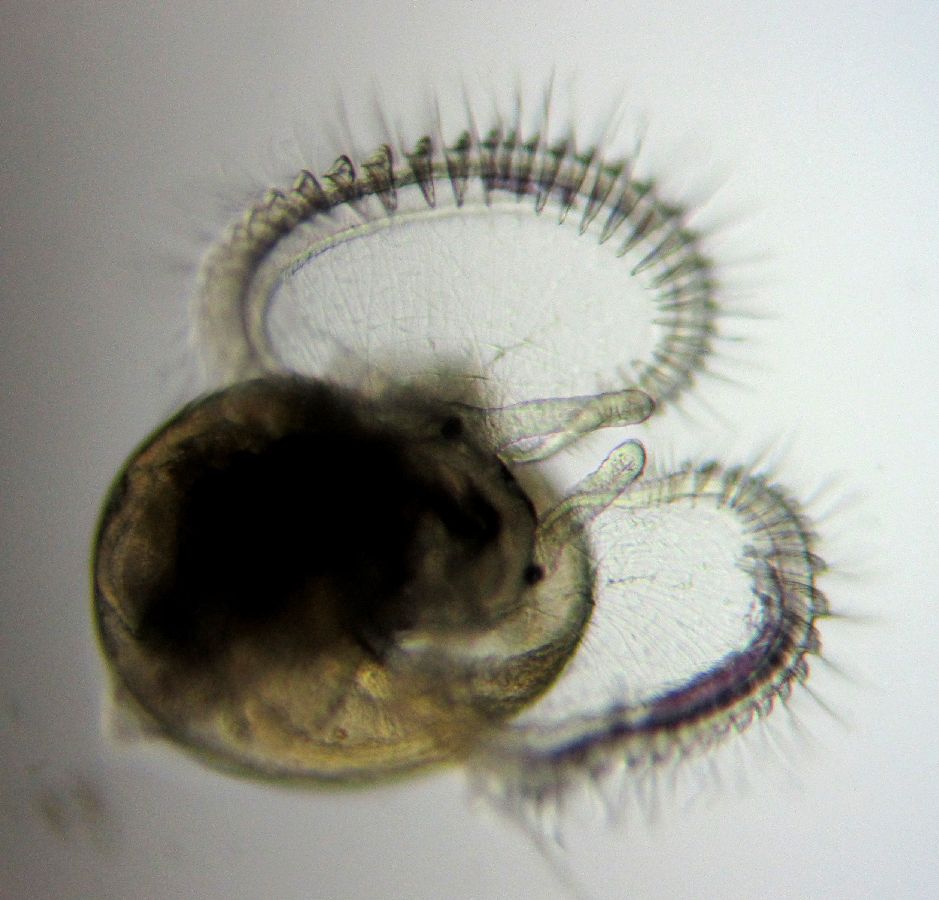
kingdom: Animalia
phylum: Mollusca
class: Gastropoda
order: Littorinimorpha
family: Littorinidae
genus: Littorina
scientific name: Littorina littorea
